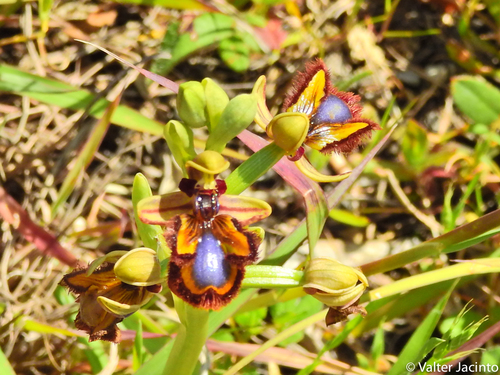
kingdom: Plantae
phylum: Tracheophyta
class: Liliopsida
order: Asparagales
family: Orchidaceae
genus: Ophrys
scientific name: Ophrys speculum
